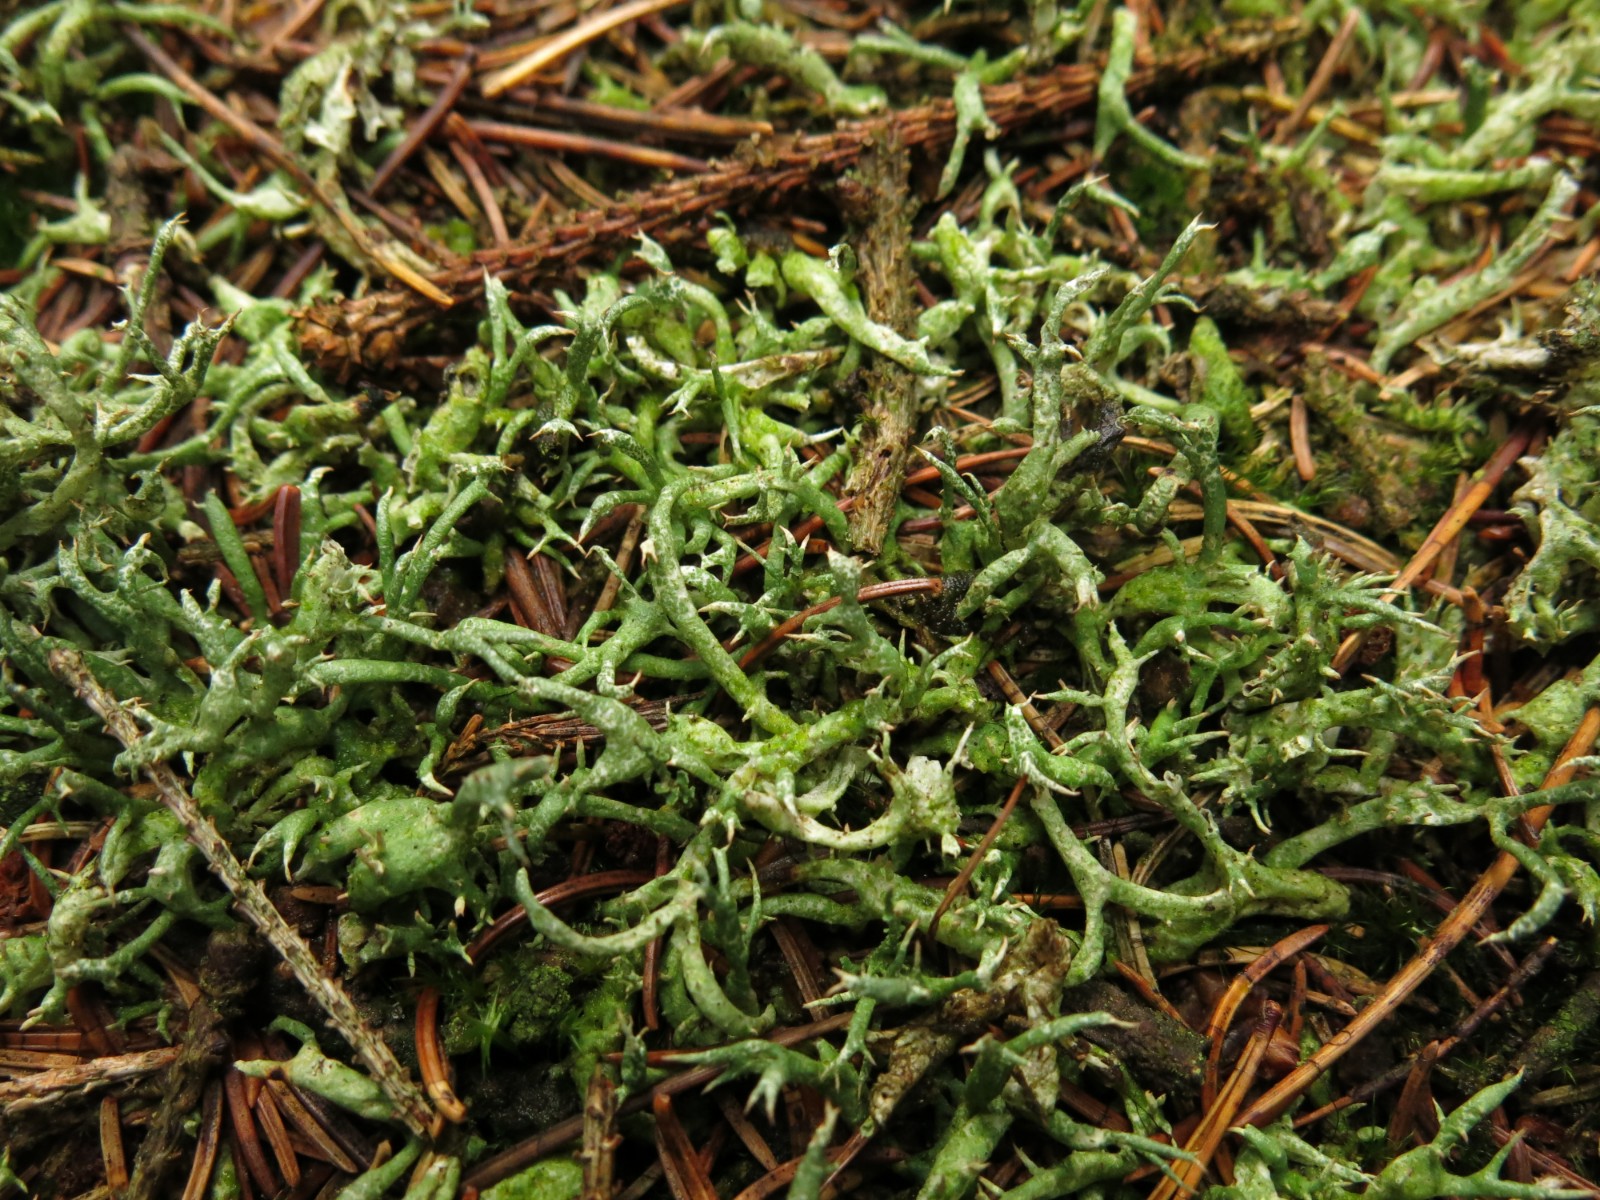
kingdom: Fungi
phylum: Ascomycota
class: Lecanoromycetes
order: Lecanorales
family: Cladoniaceae
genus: Cladonia
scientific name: Cladonia uncialis
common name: pigget bægerlav
